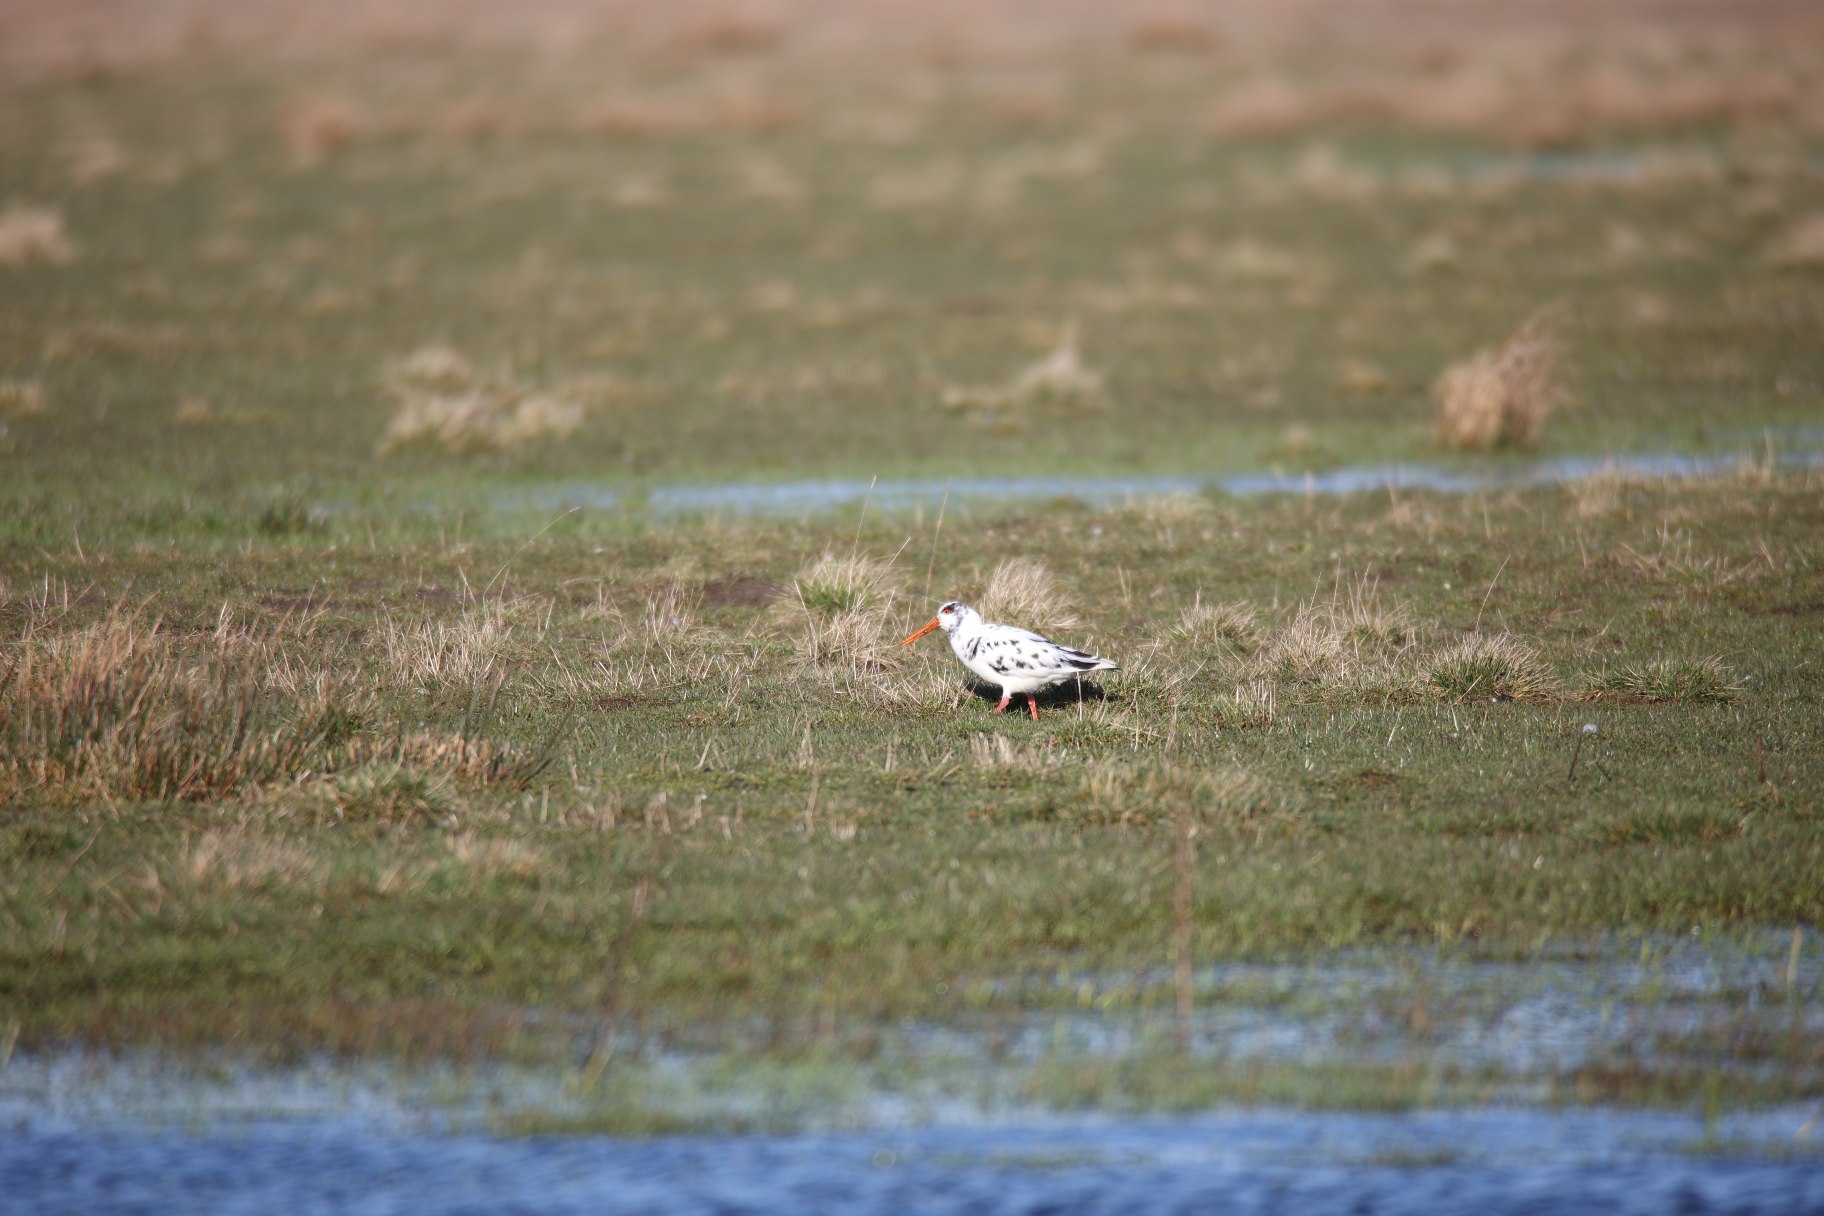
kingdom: Animalia
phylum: Chordata
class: Aves
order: Charadriiformes
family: Haematopodidae
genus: Haematopus
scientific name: Haematopus ostralegus
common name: Strandskade
